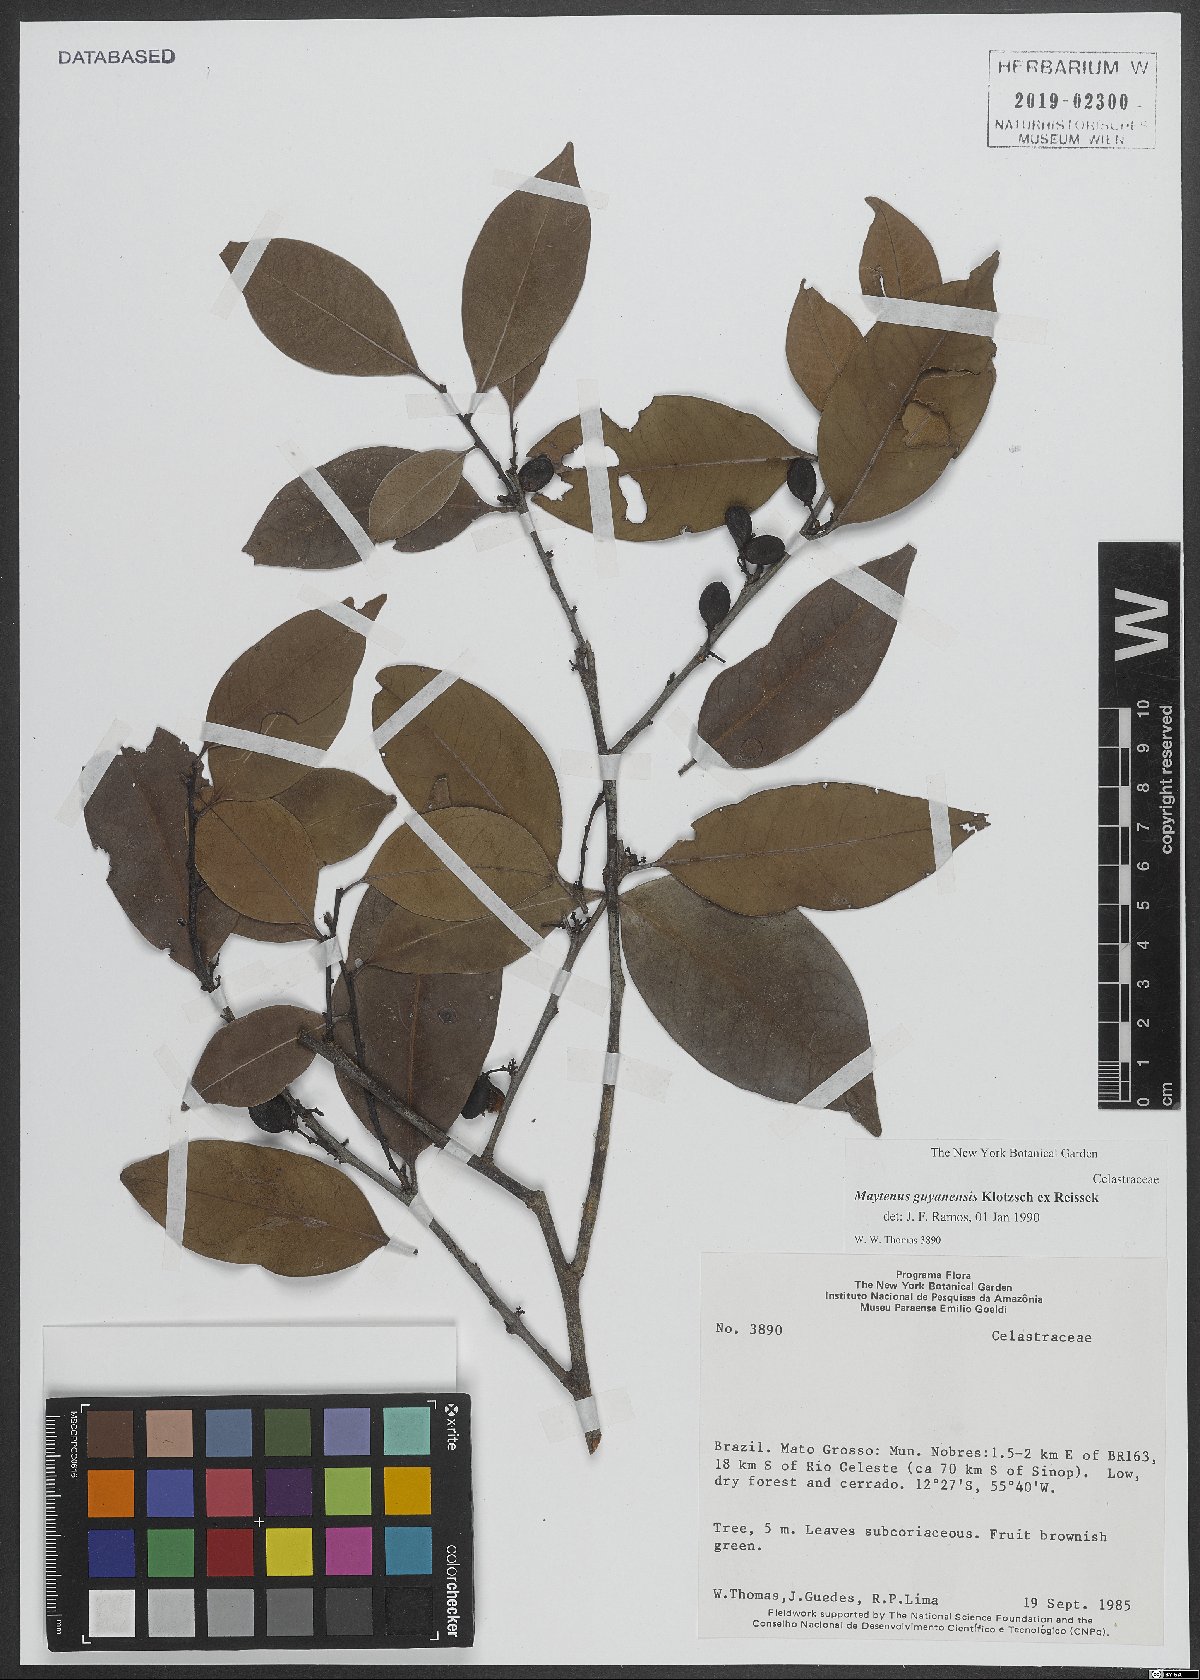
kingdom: Plantae
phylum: Tracheophyta
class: Magnoliopsida
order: Celastrales
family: Celastraceae
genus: Monteverdia
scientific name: Monteverdia guyanensis
